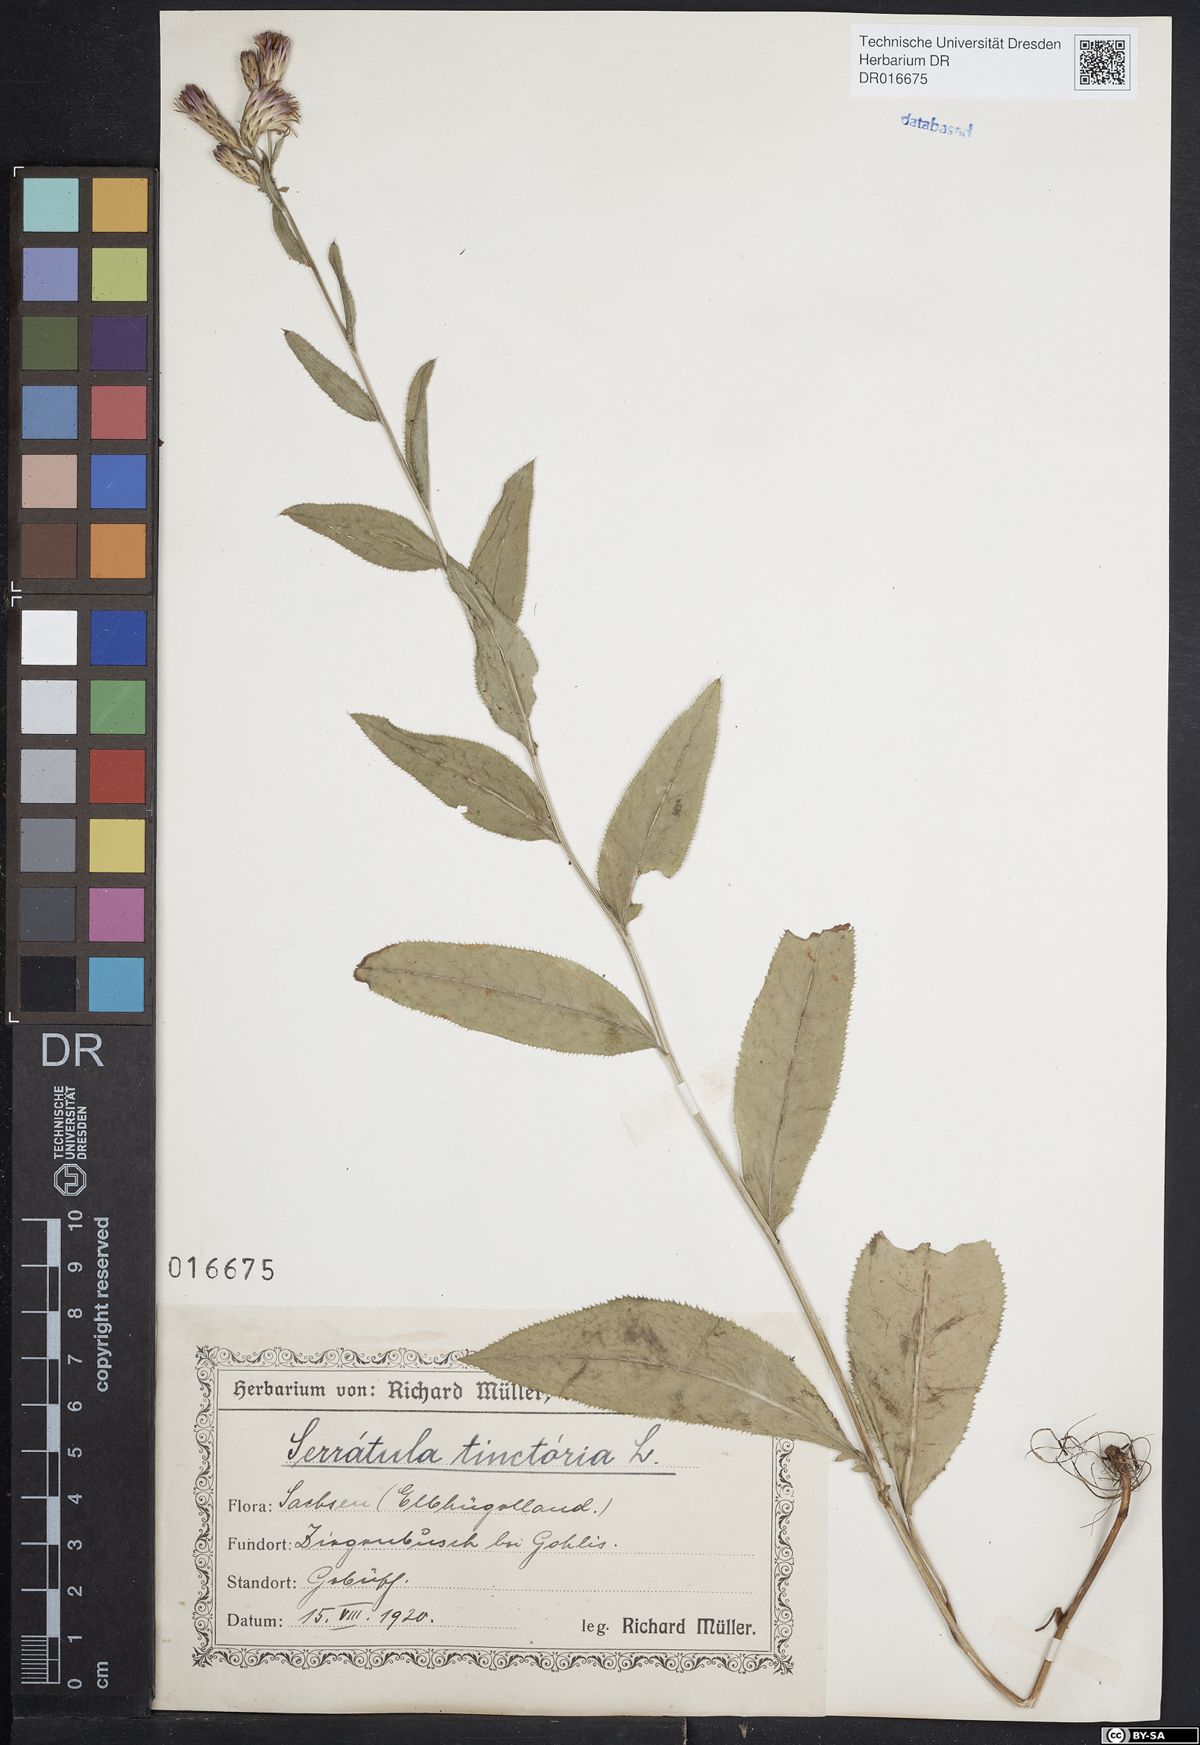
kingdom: Plantae
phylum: Tracheophyta
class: Magnoliopsida
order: Asterales
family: Asteraceae
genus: Serratula
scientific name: Serratula tinctoria
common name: Saw-wort
